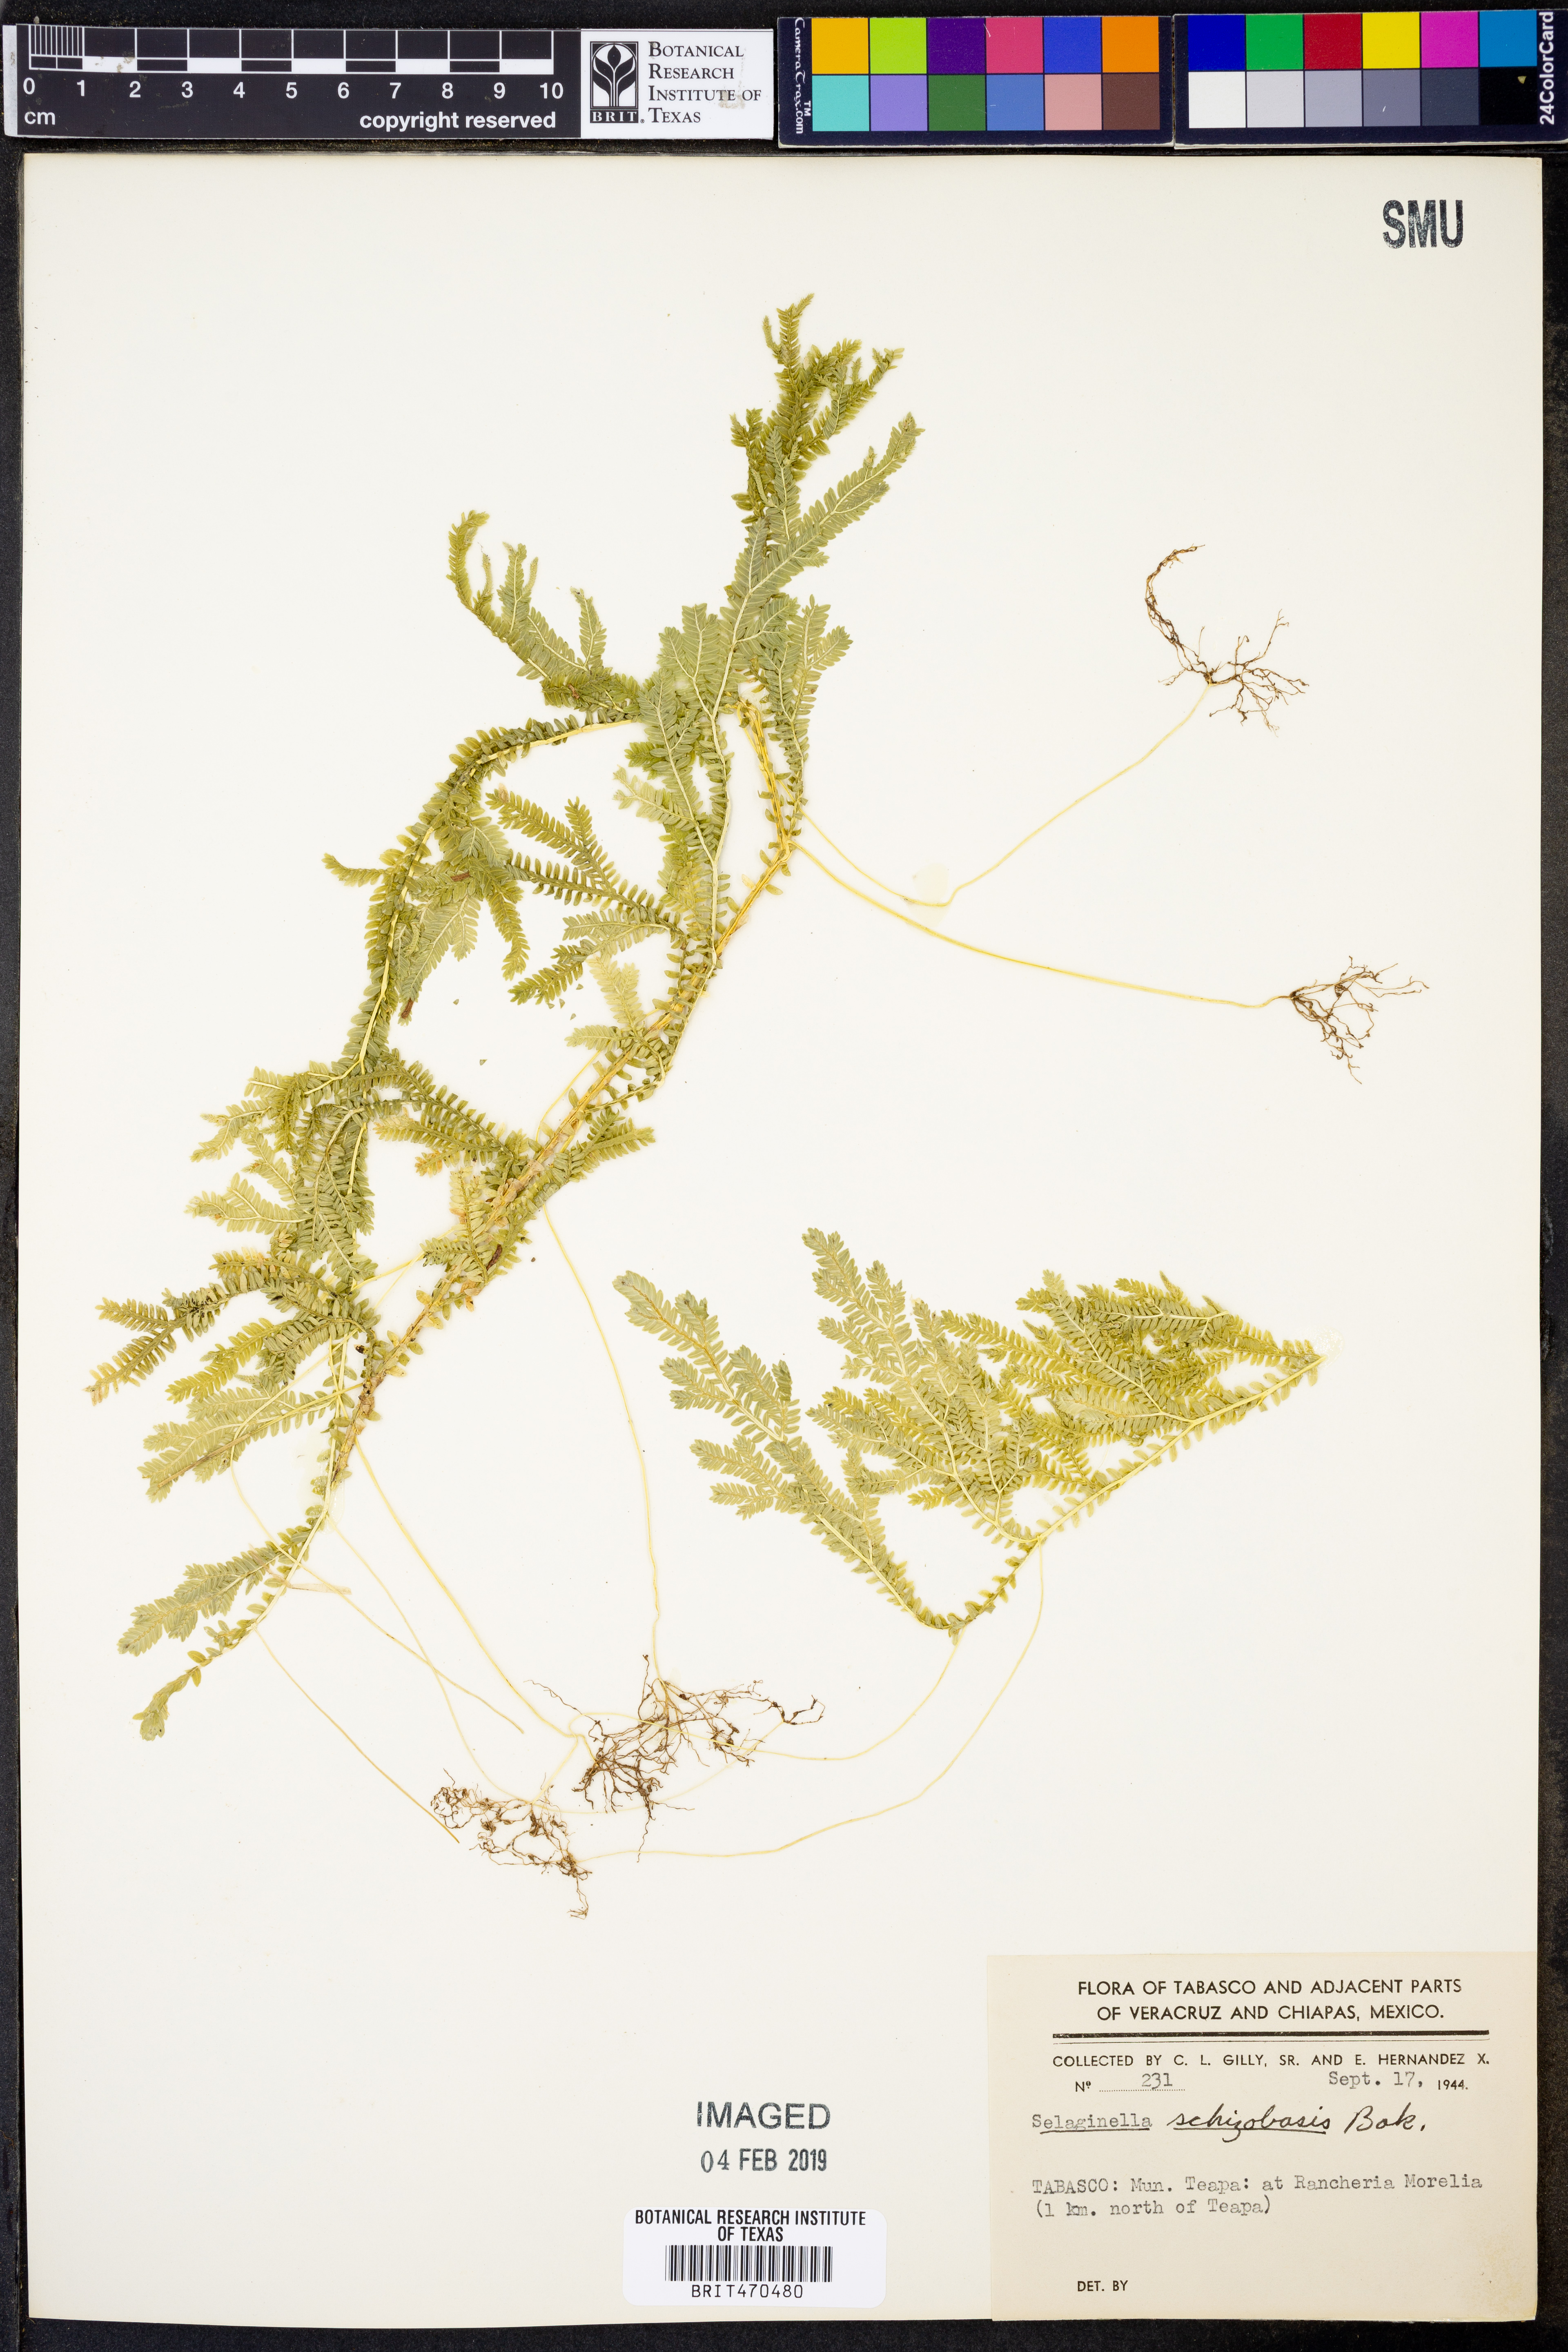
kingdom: Plantae
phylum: Tracheophyta
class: Lycopodiopsida
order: Selaginellales
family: Selaginellaceae
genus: Selaginella
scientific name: Selaginella schizobasis
